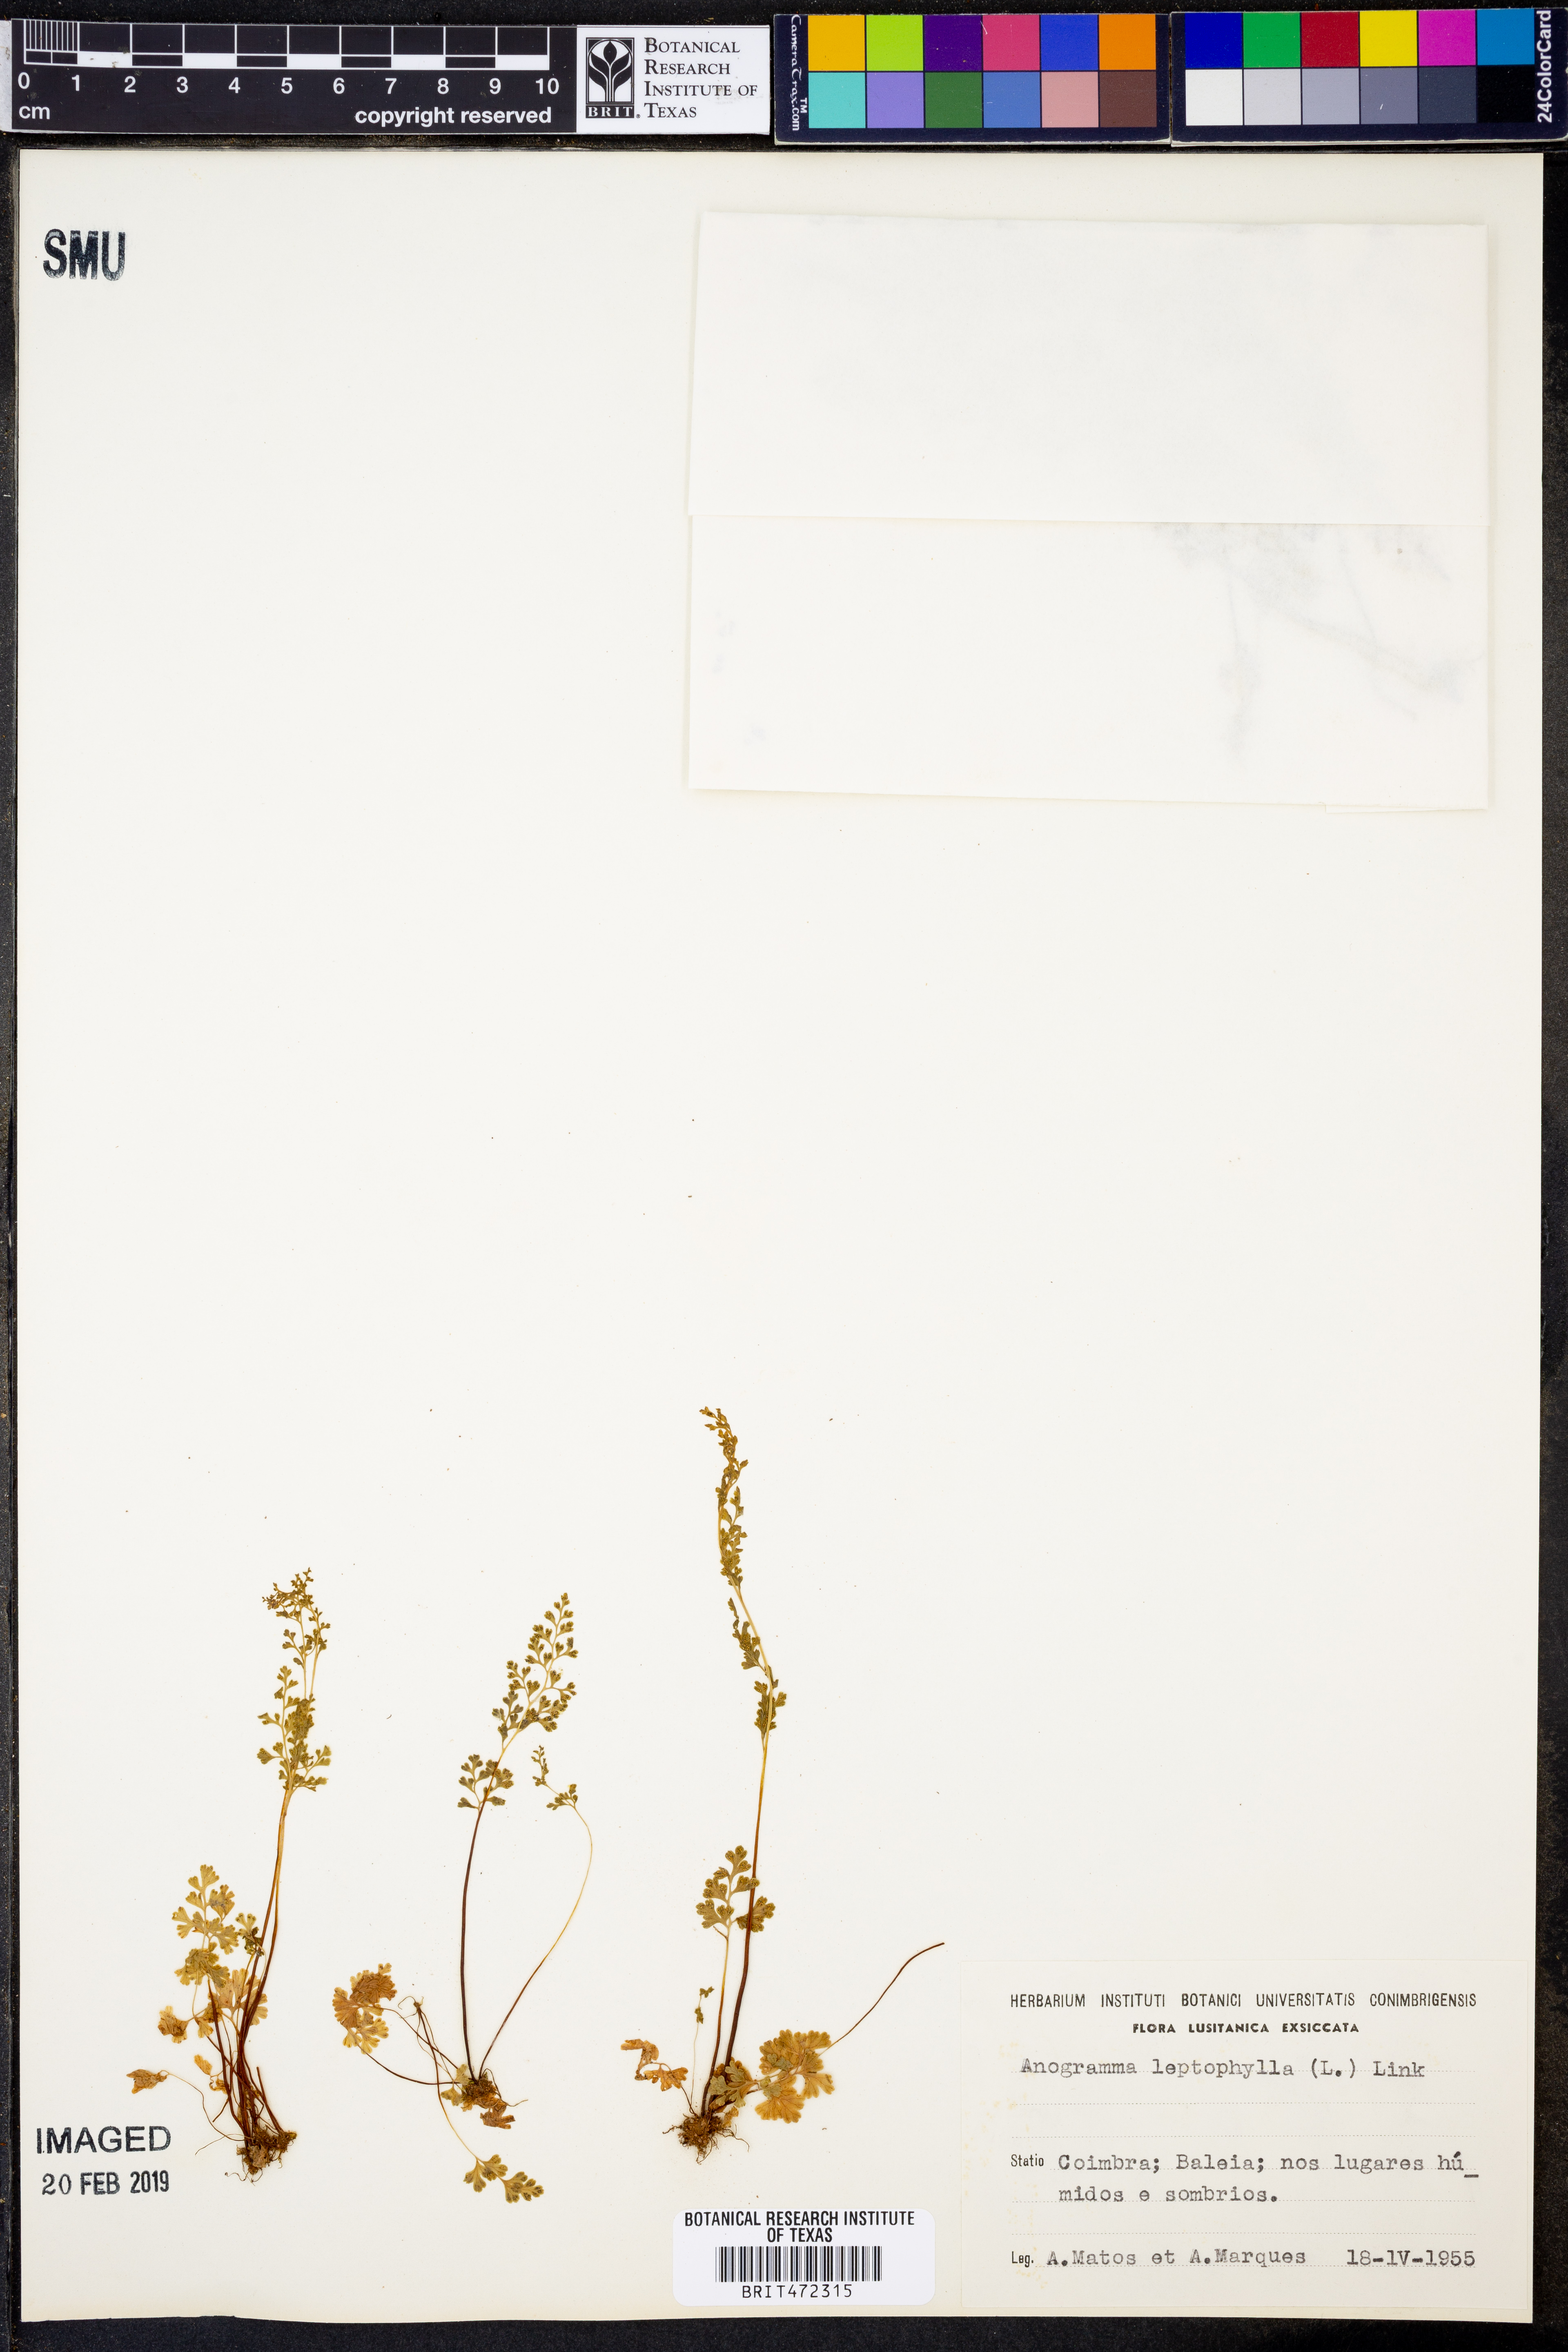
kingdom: Plantae
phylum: Tracheophyta
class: Polypodiopsida
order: Polypodiales
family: Pteridaceae
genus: Anogramma
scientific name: Anogramma leptophylla
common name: Jersey fern
